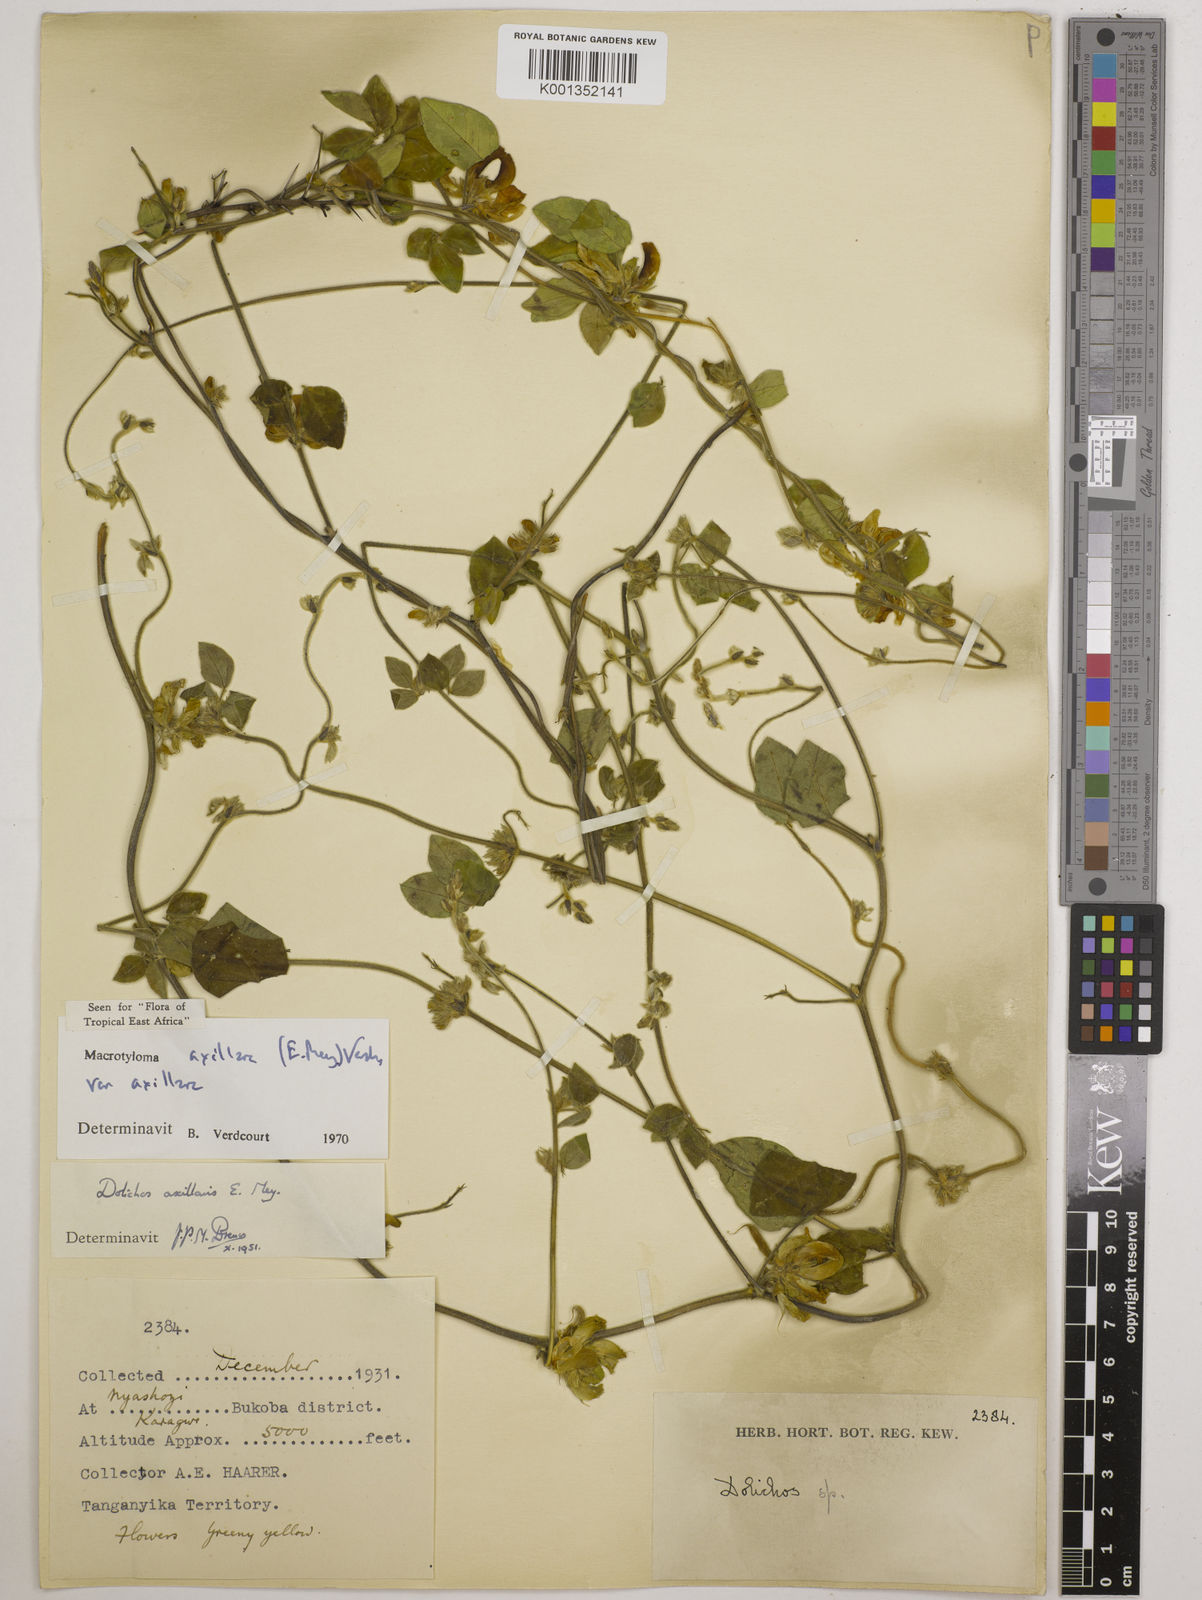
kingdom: Plantae
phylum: Tracheophyta
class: Magnoliopsida
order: Fabales
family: Fabaceae
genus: Macrotyloma
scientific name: Macrotyloma axillare
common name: Perennial horsegram
